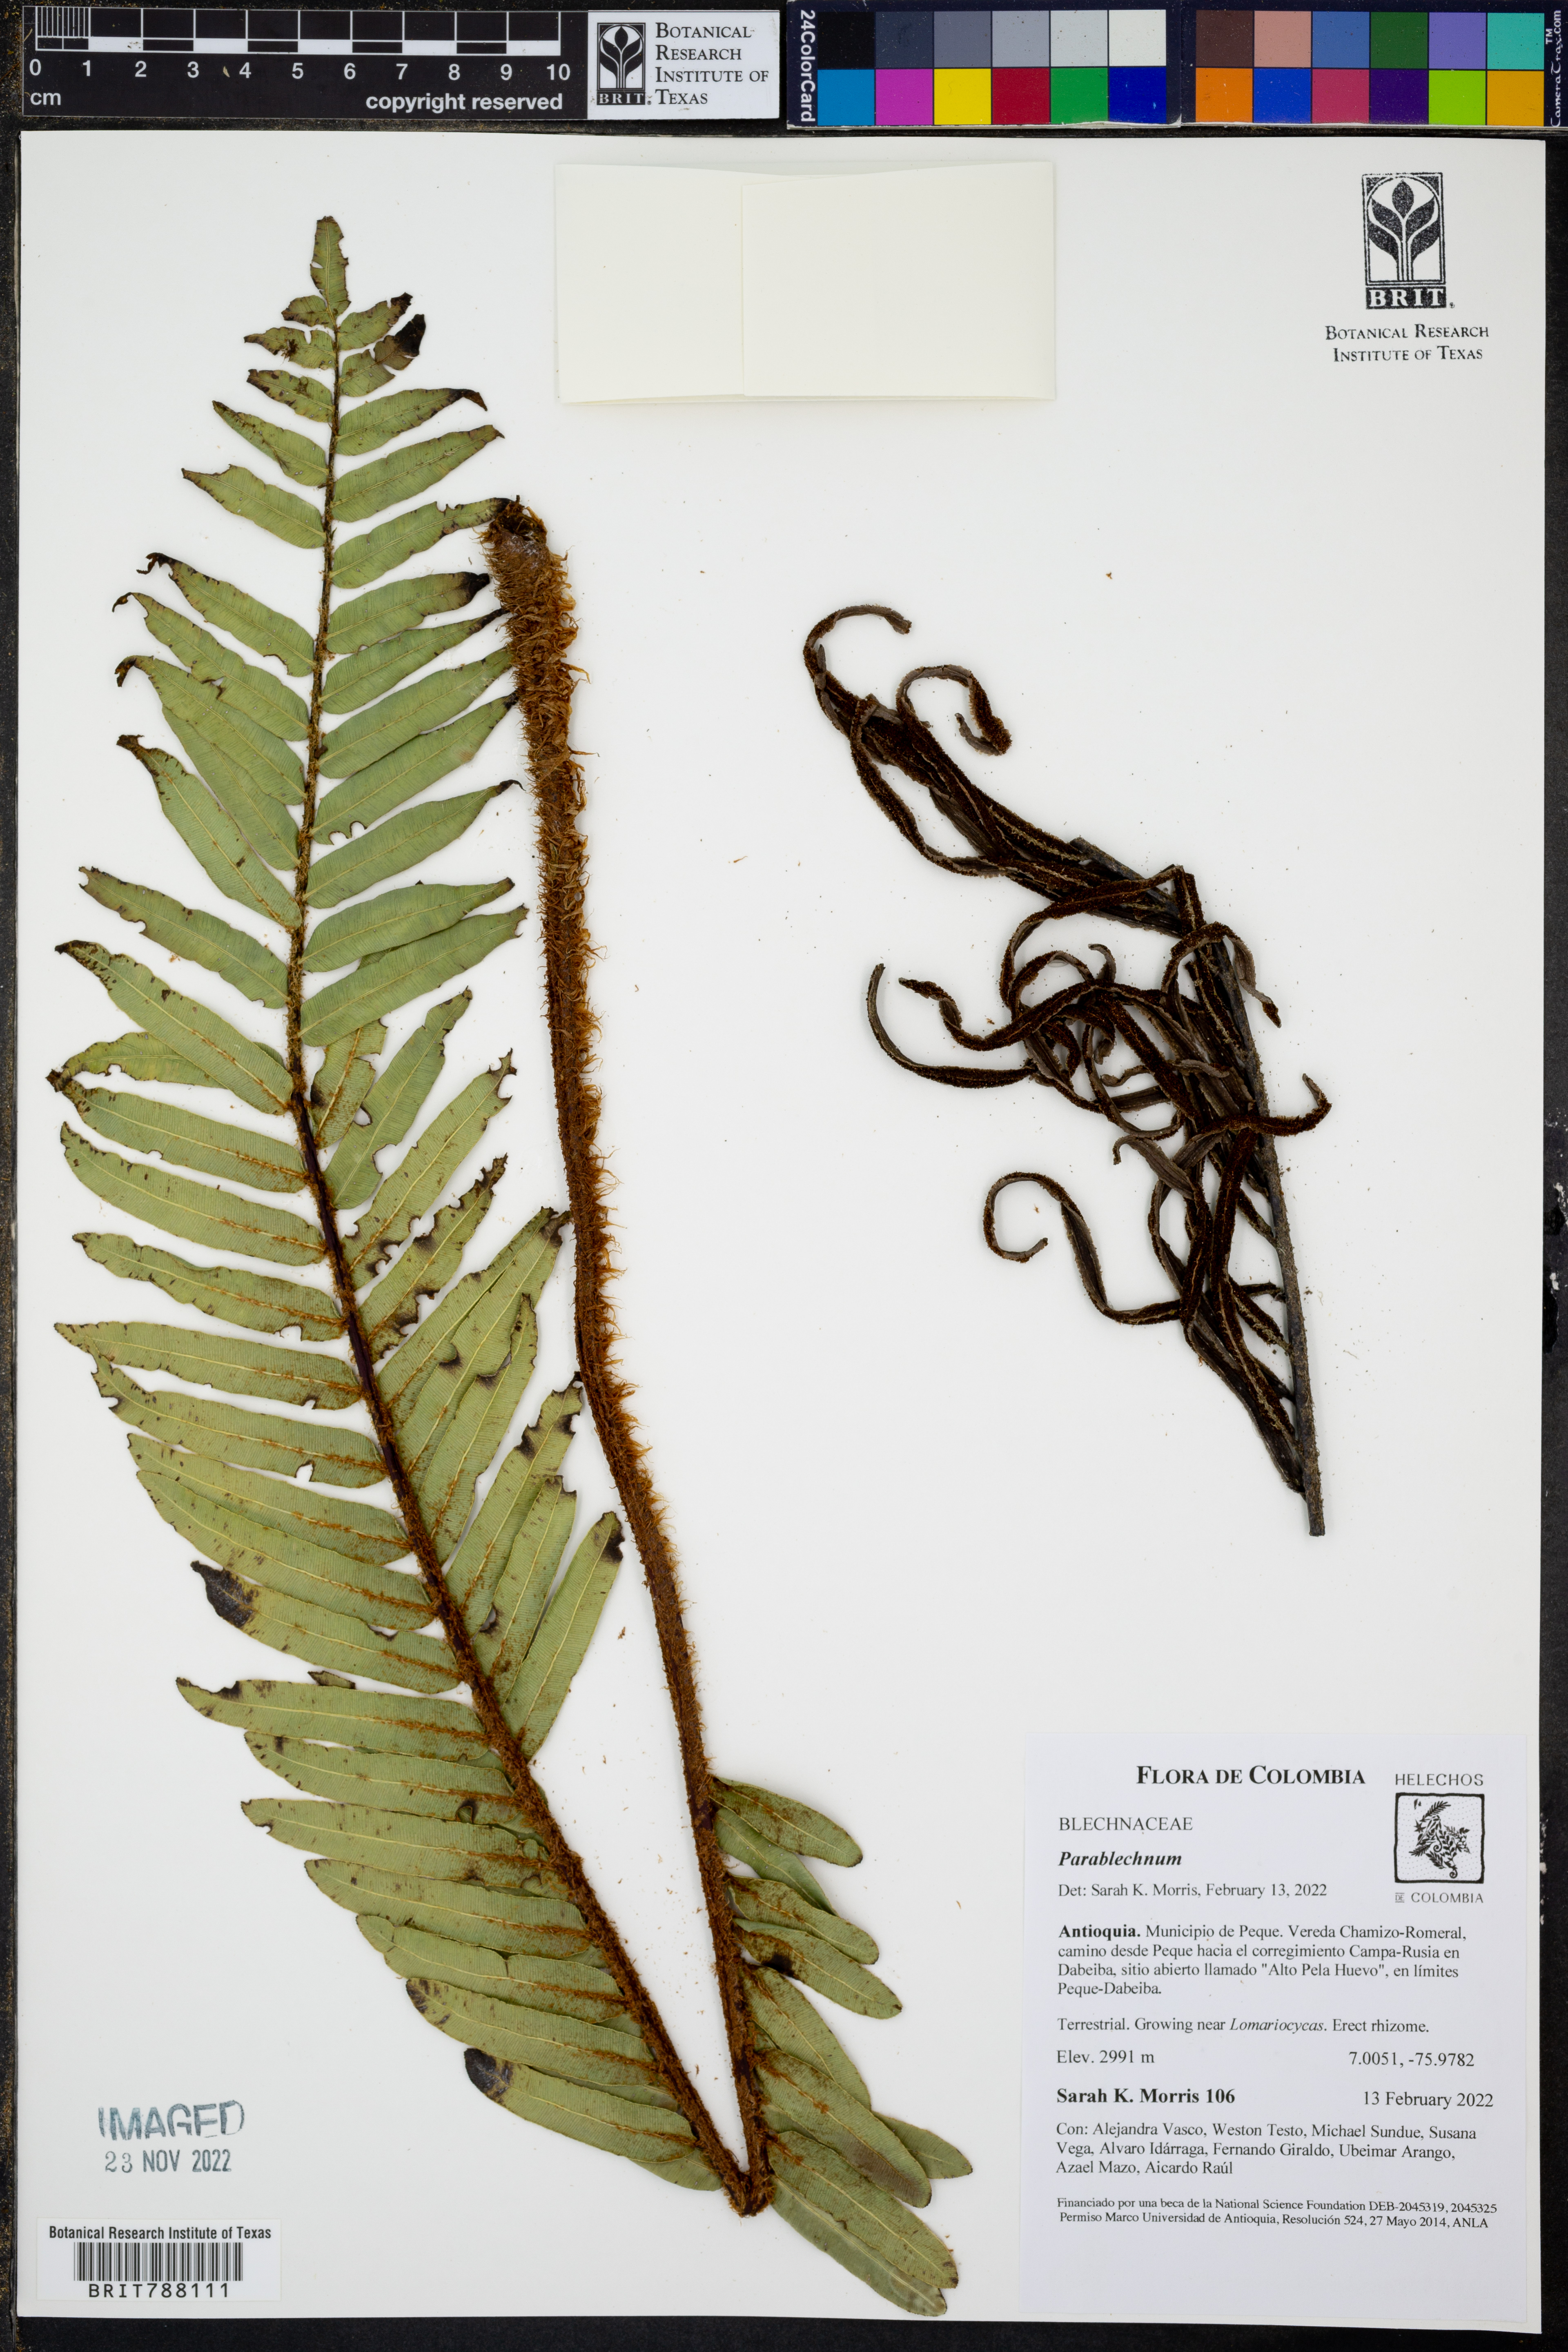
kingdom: Plantae
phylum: Tracheophyta
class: Polypodiopsida
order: Polypodiales
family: Blechnaceae
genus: Parablechnum
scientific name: Parablechnum
